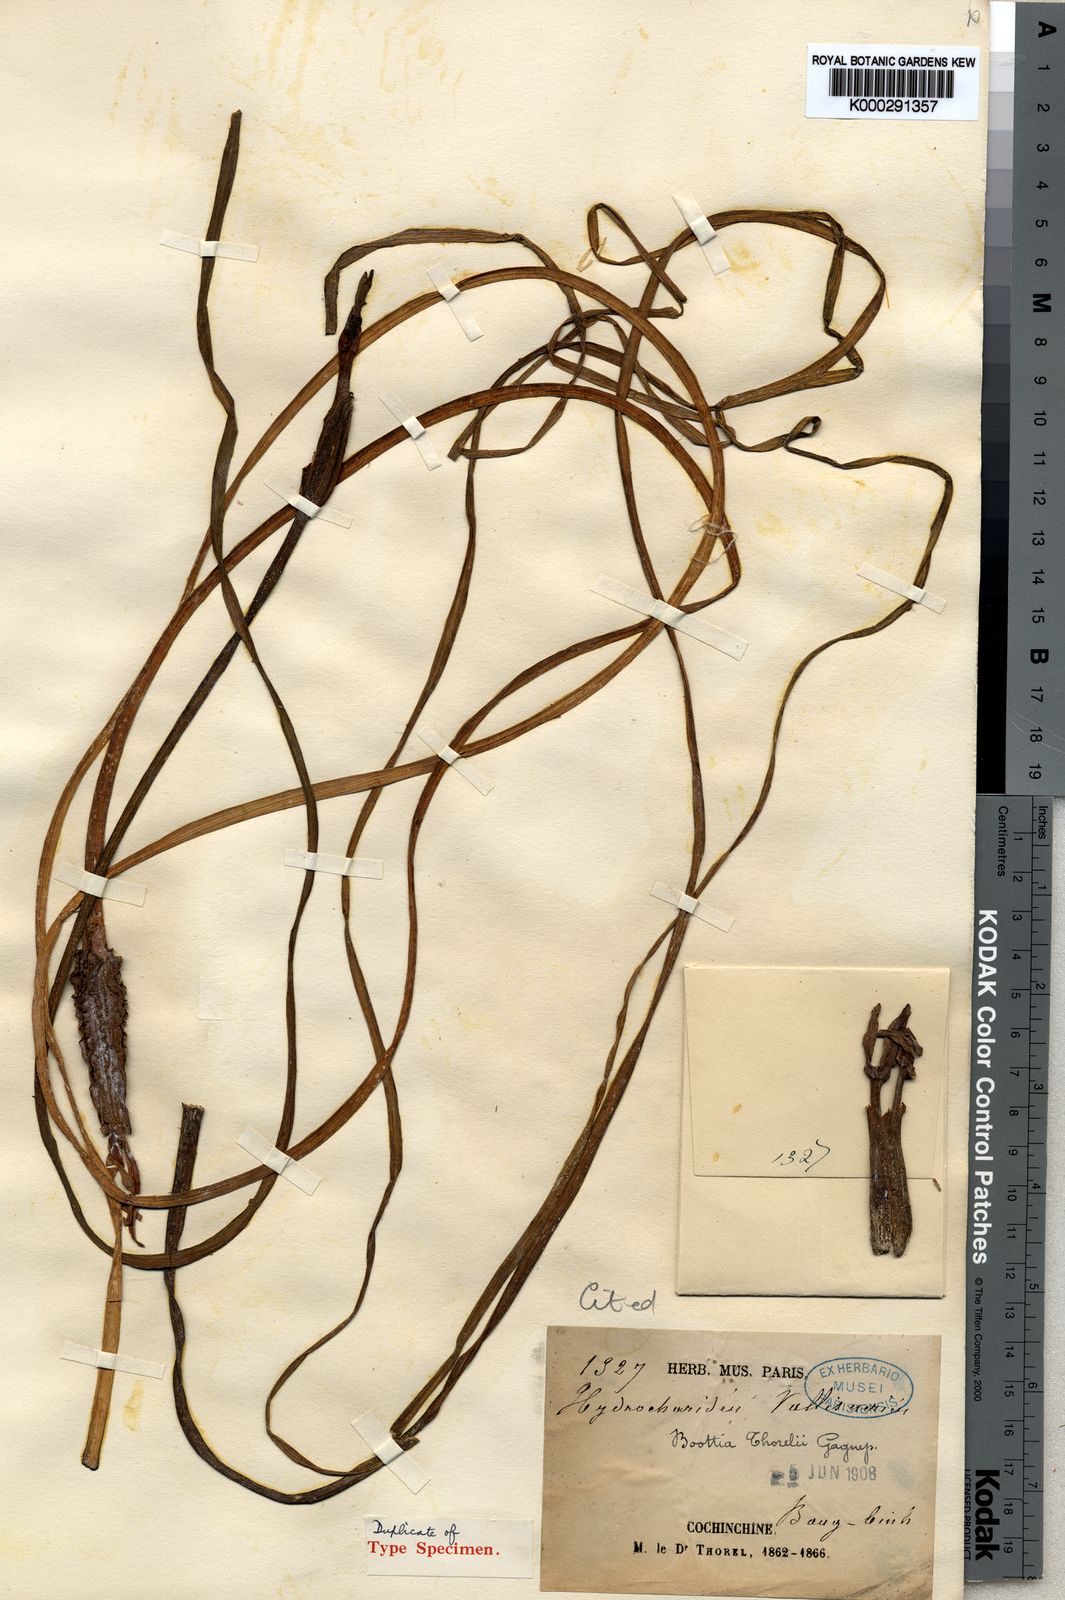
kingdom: Plantae
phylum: Tracheophyta
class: Liliopsida
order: Alismatales
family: Hydrocharitaceae
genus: Ottelia
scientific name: Ottelia alismoides
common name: Duck-lettuce
